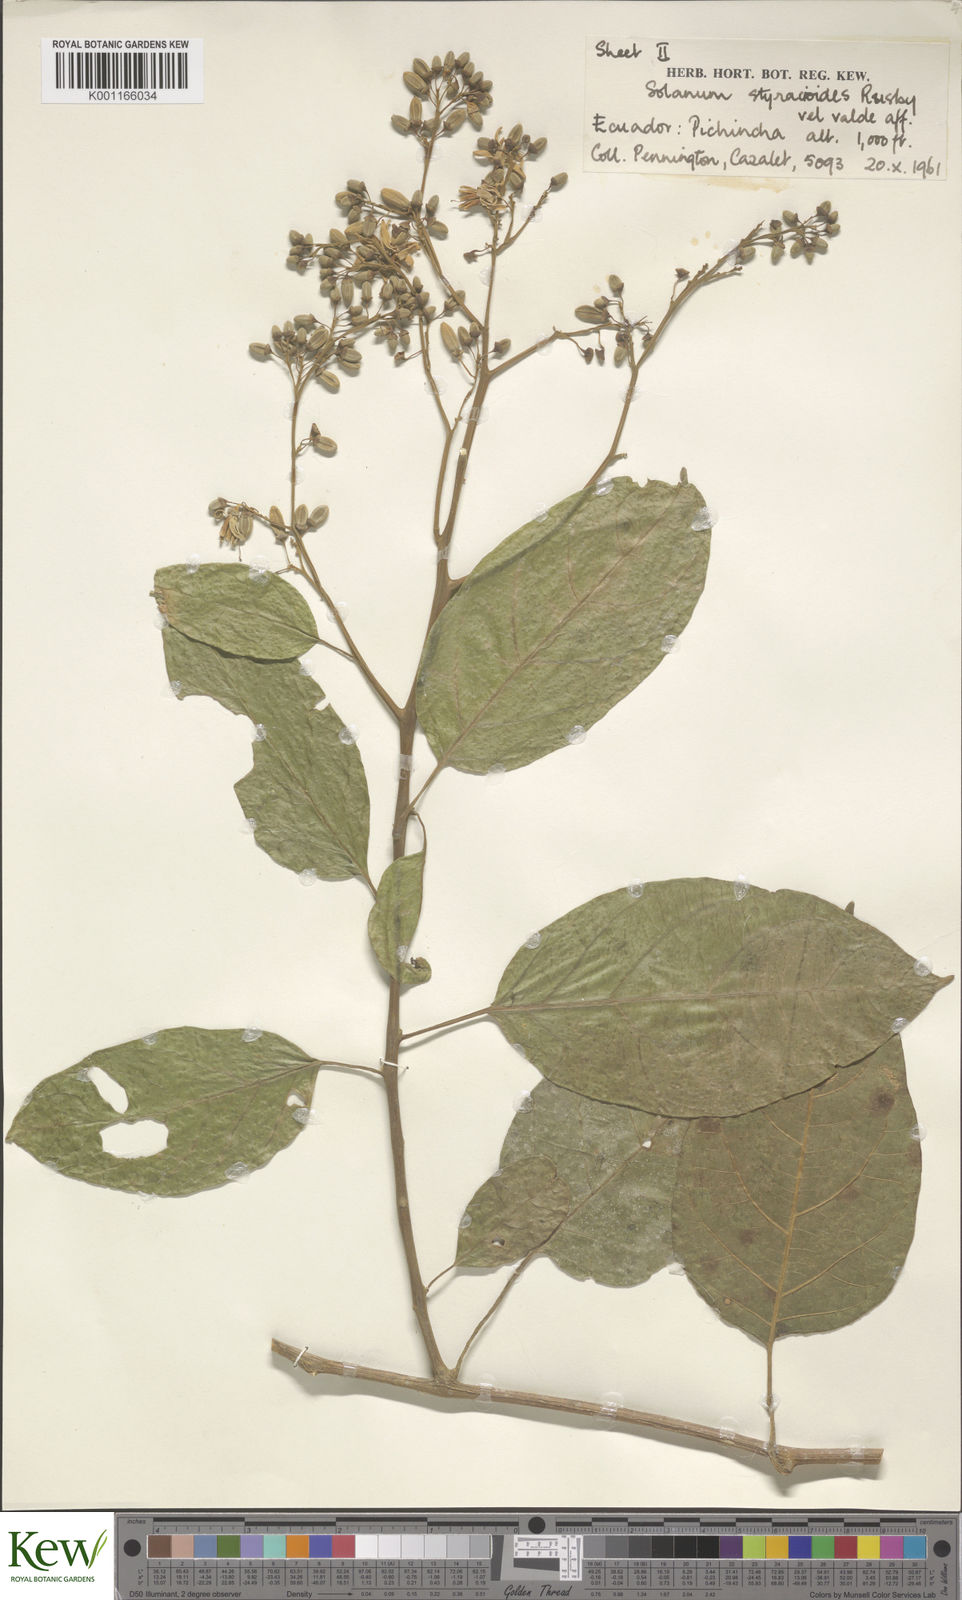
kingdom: Plantae
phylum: Tracheophyta
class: Magnoliopsida
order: Solanales
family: Solanaceae
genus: Solanum
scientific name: Solanum uncinellum
